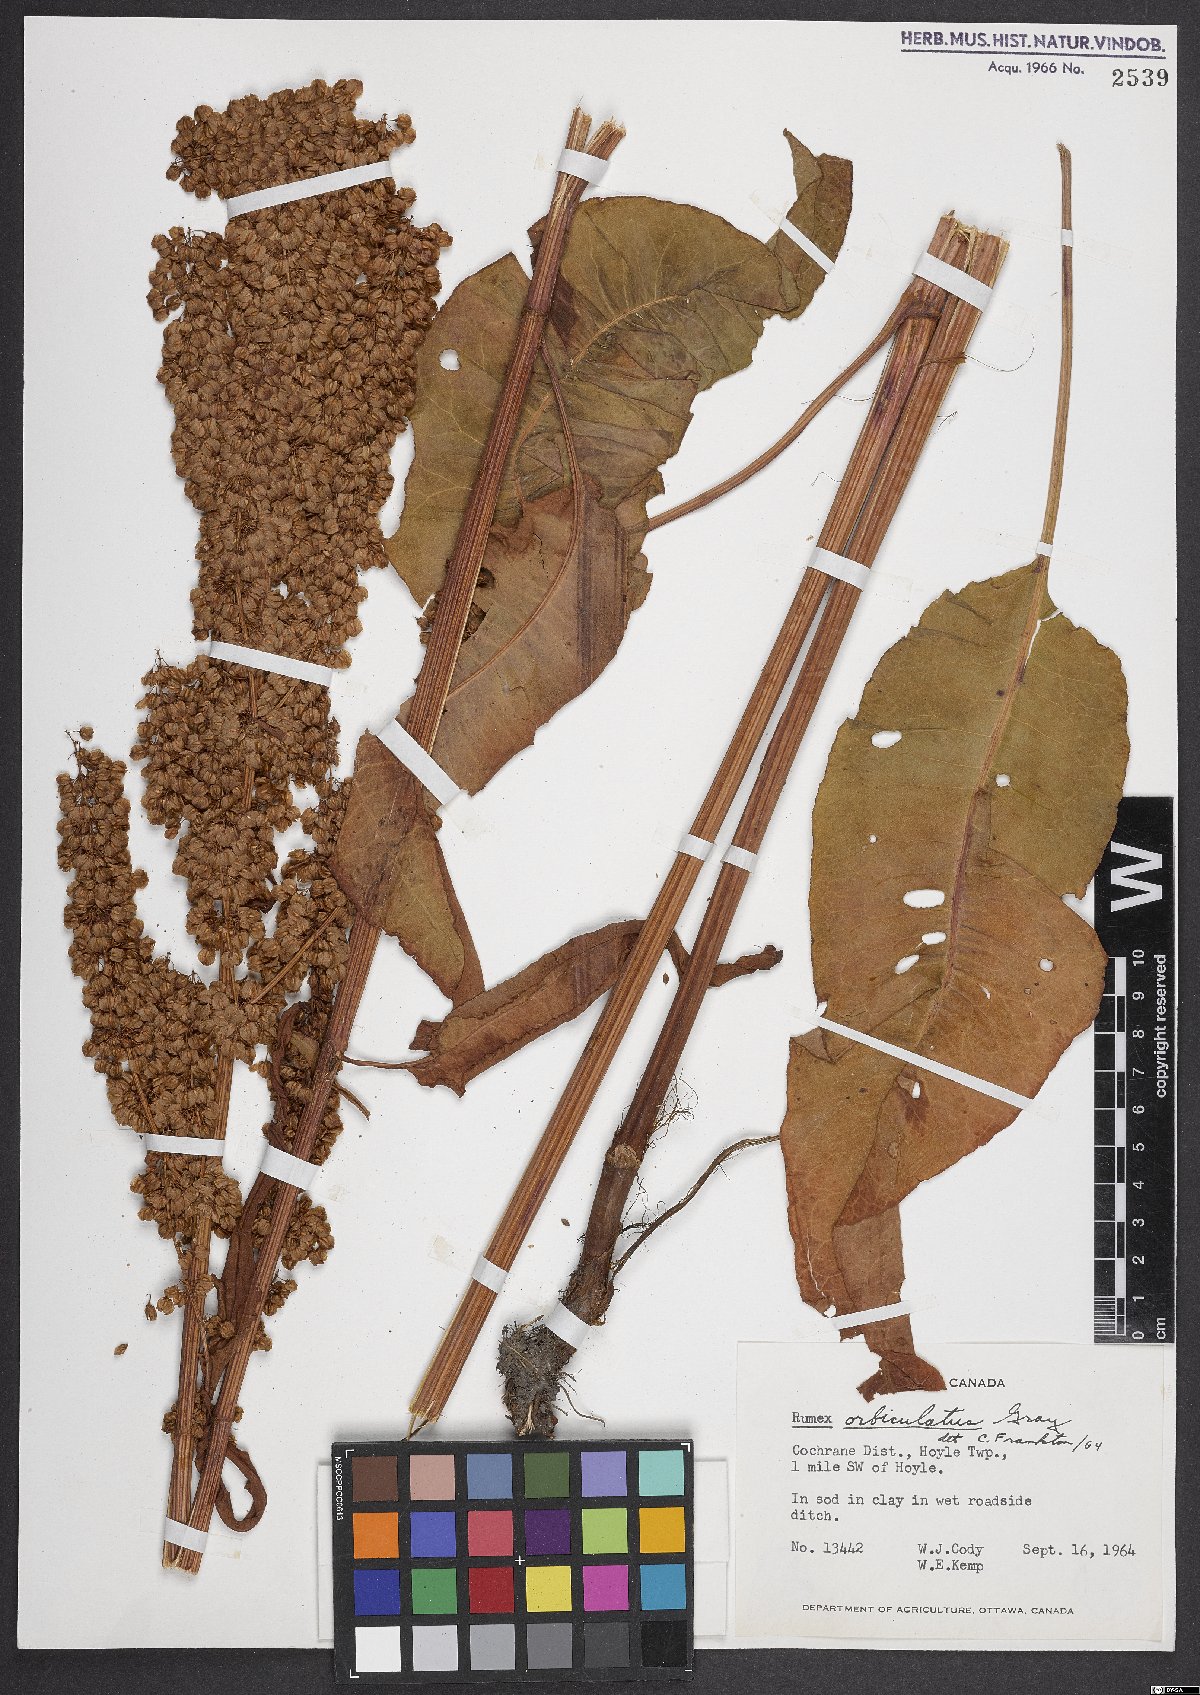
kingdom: Plantae
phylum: Tracheophyta
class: Magnoliopsida
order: Caryophyllales
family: Polygonaceae
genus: Rumex
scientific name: Rumex orbiculatus
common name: Greater water dock
